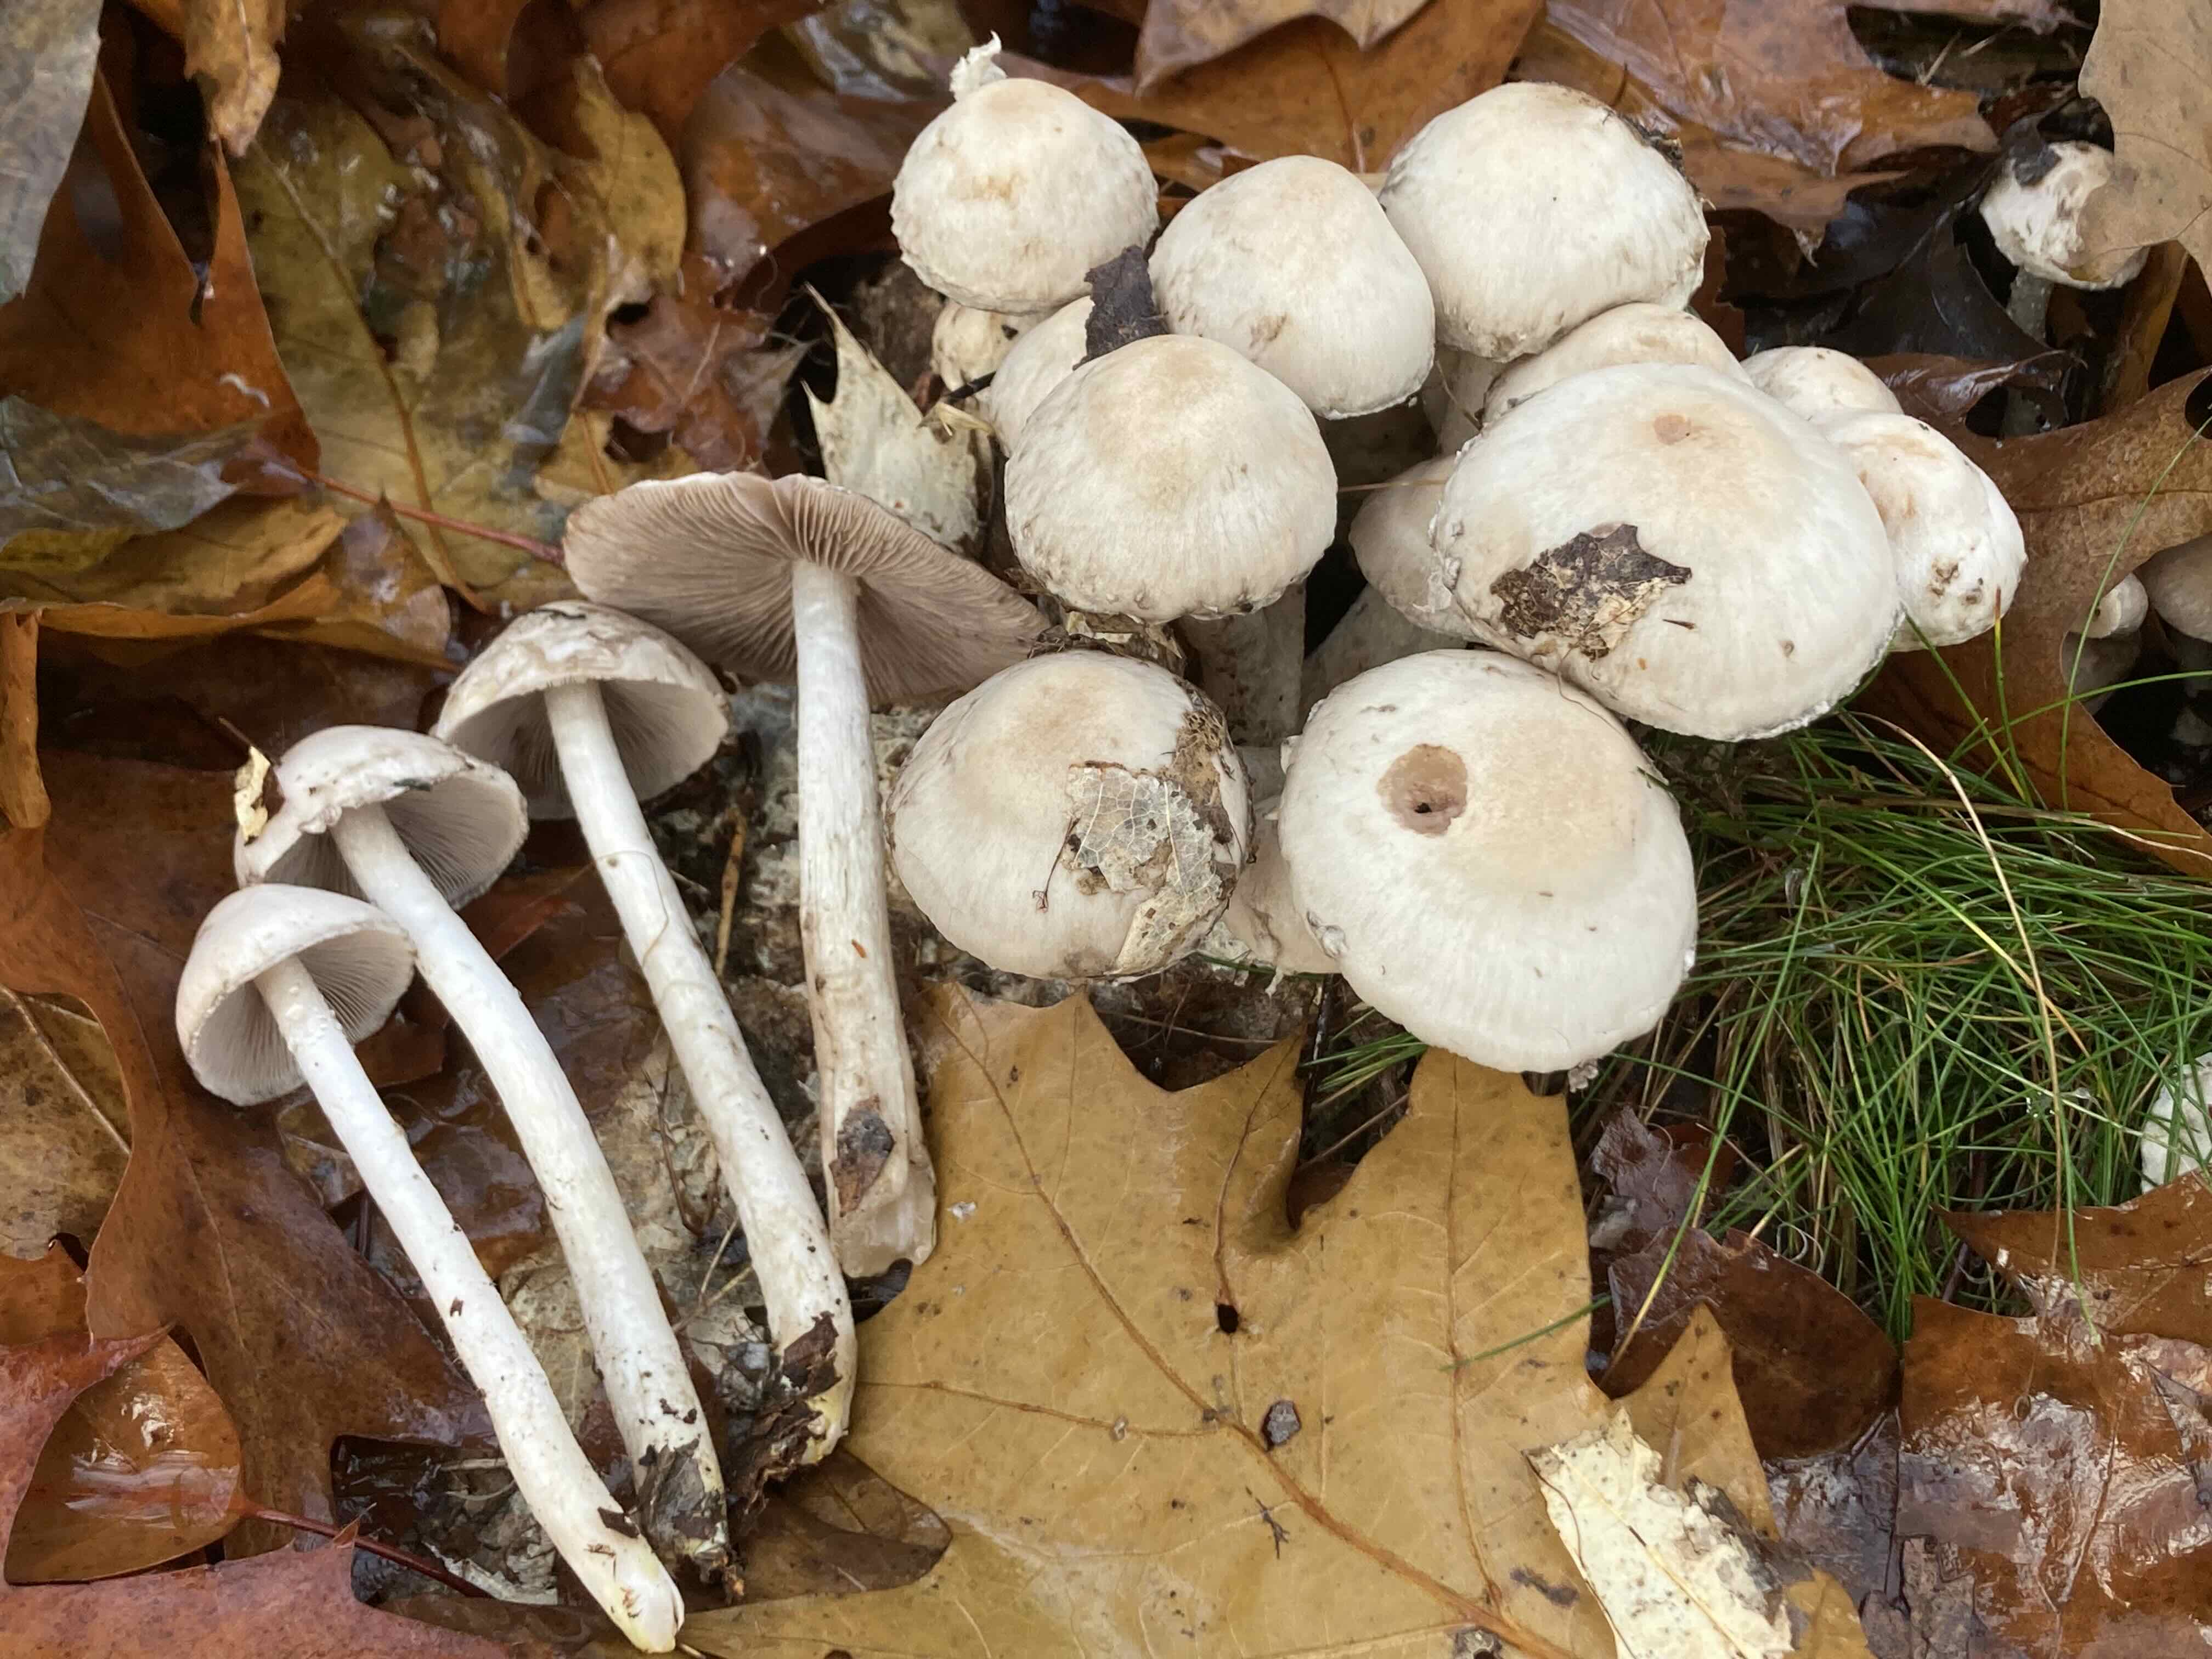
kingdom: Fungi
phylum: Basidiomycota
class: Agaricomycetes
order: Agaricales
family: Psathyrellaceae
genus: Psathyrella
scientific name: Psathyrella cotonea
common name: skællet mørkhat
